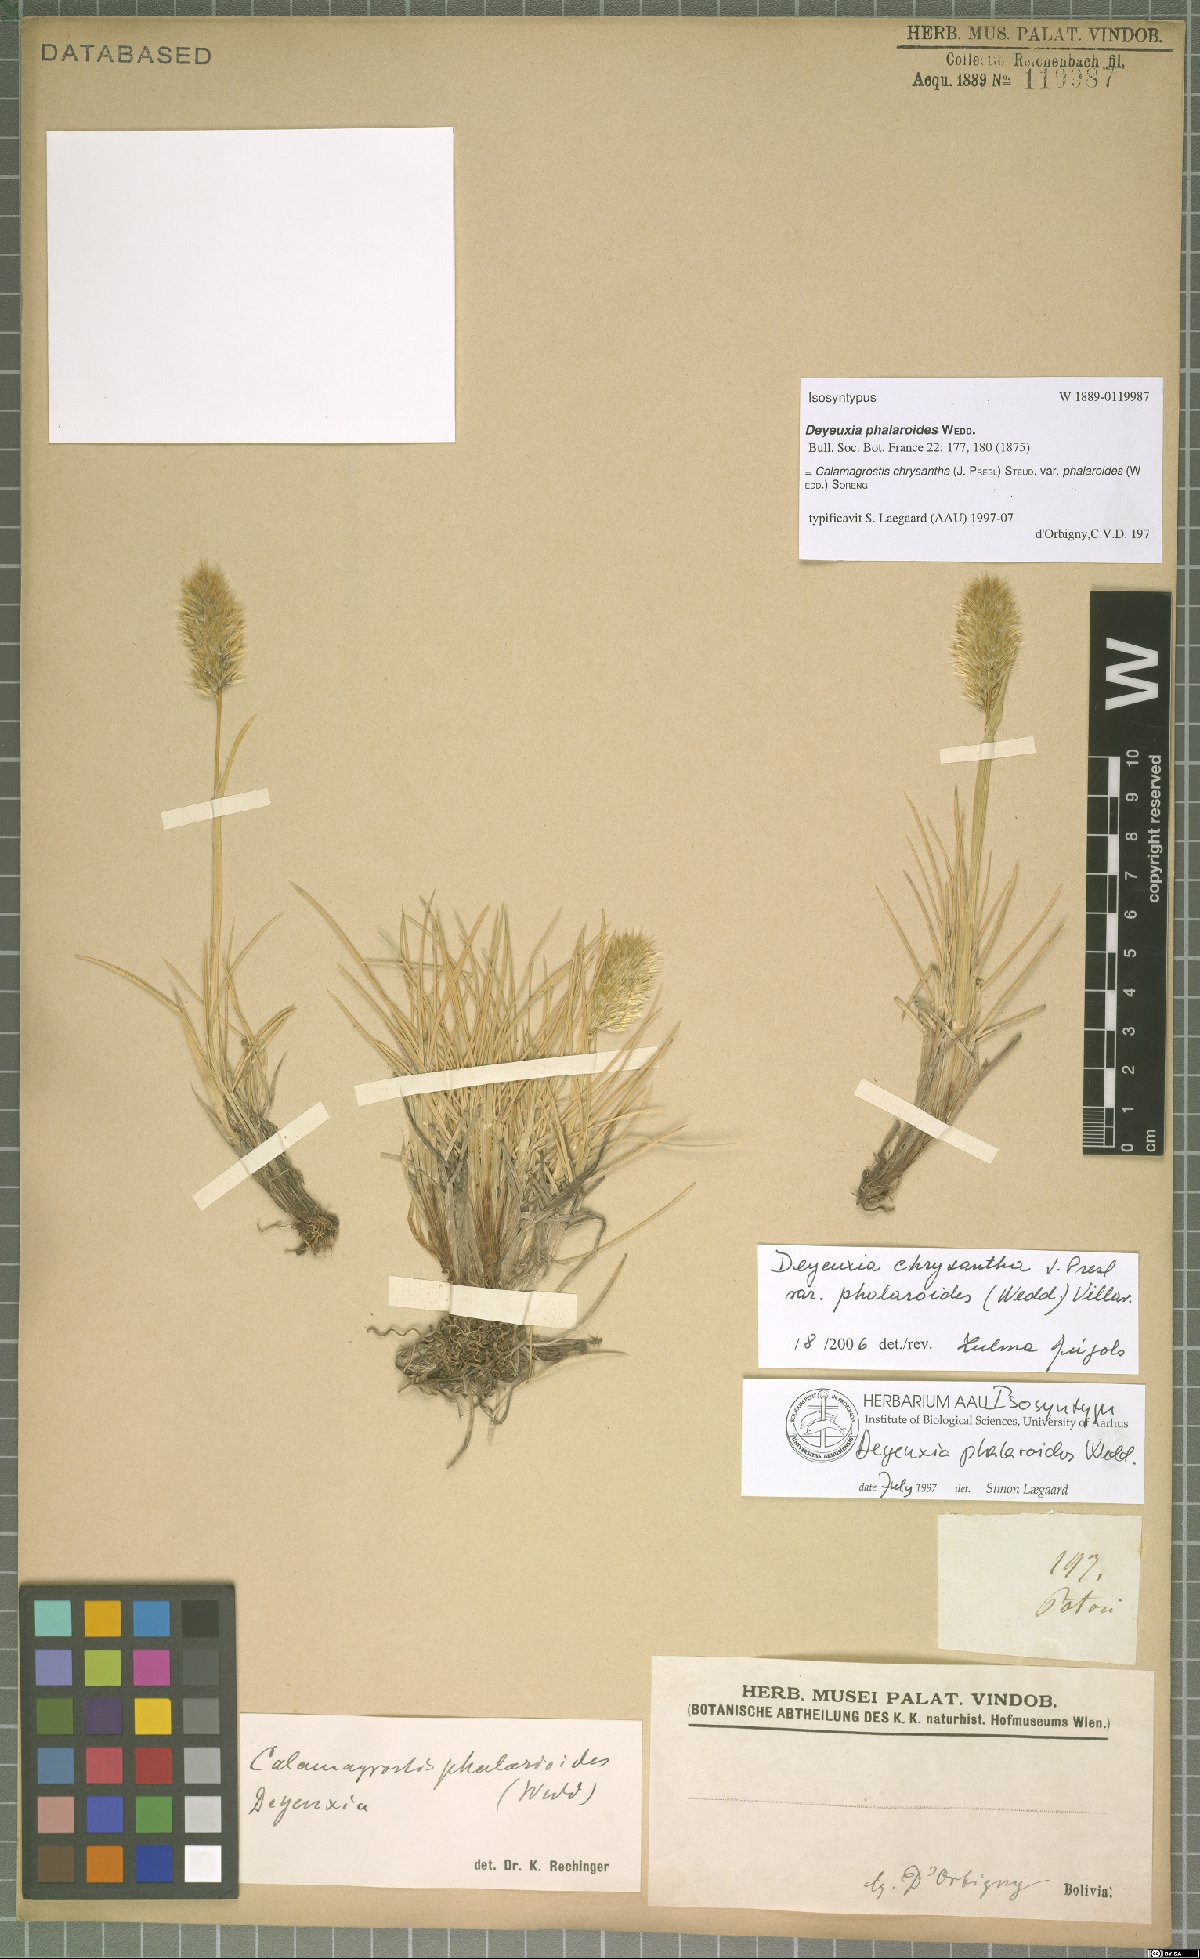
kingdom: Plantae
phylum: Tracheophyta
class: Liliopsida
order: Poales
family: Poaceae
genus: Deschampsia
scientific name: Deschampsia chrysantha
